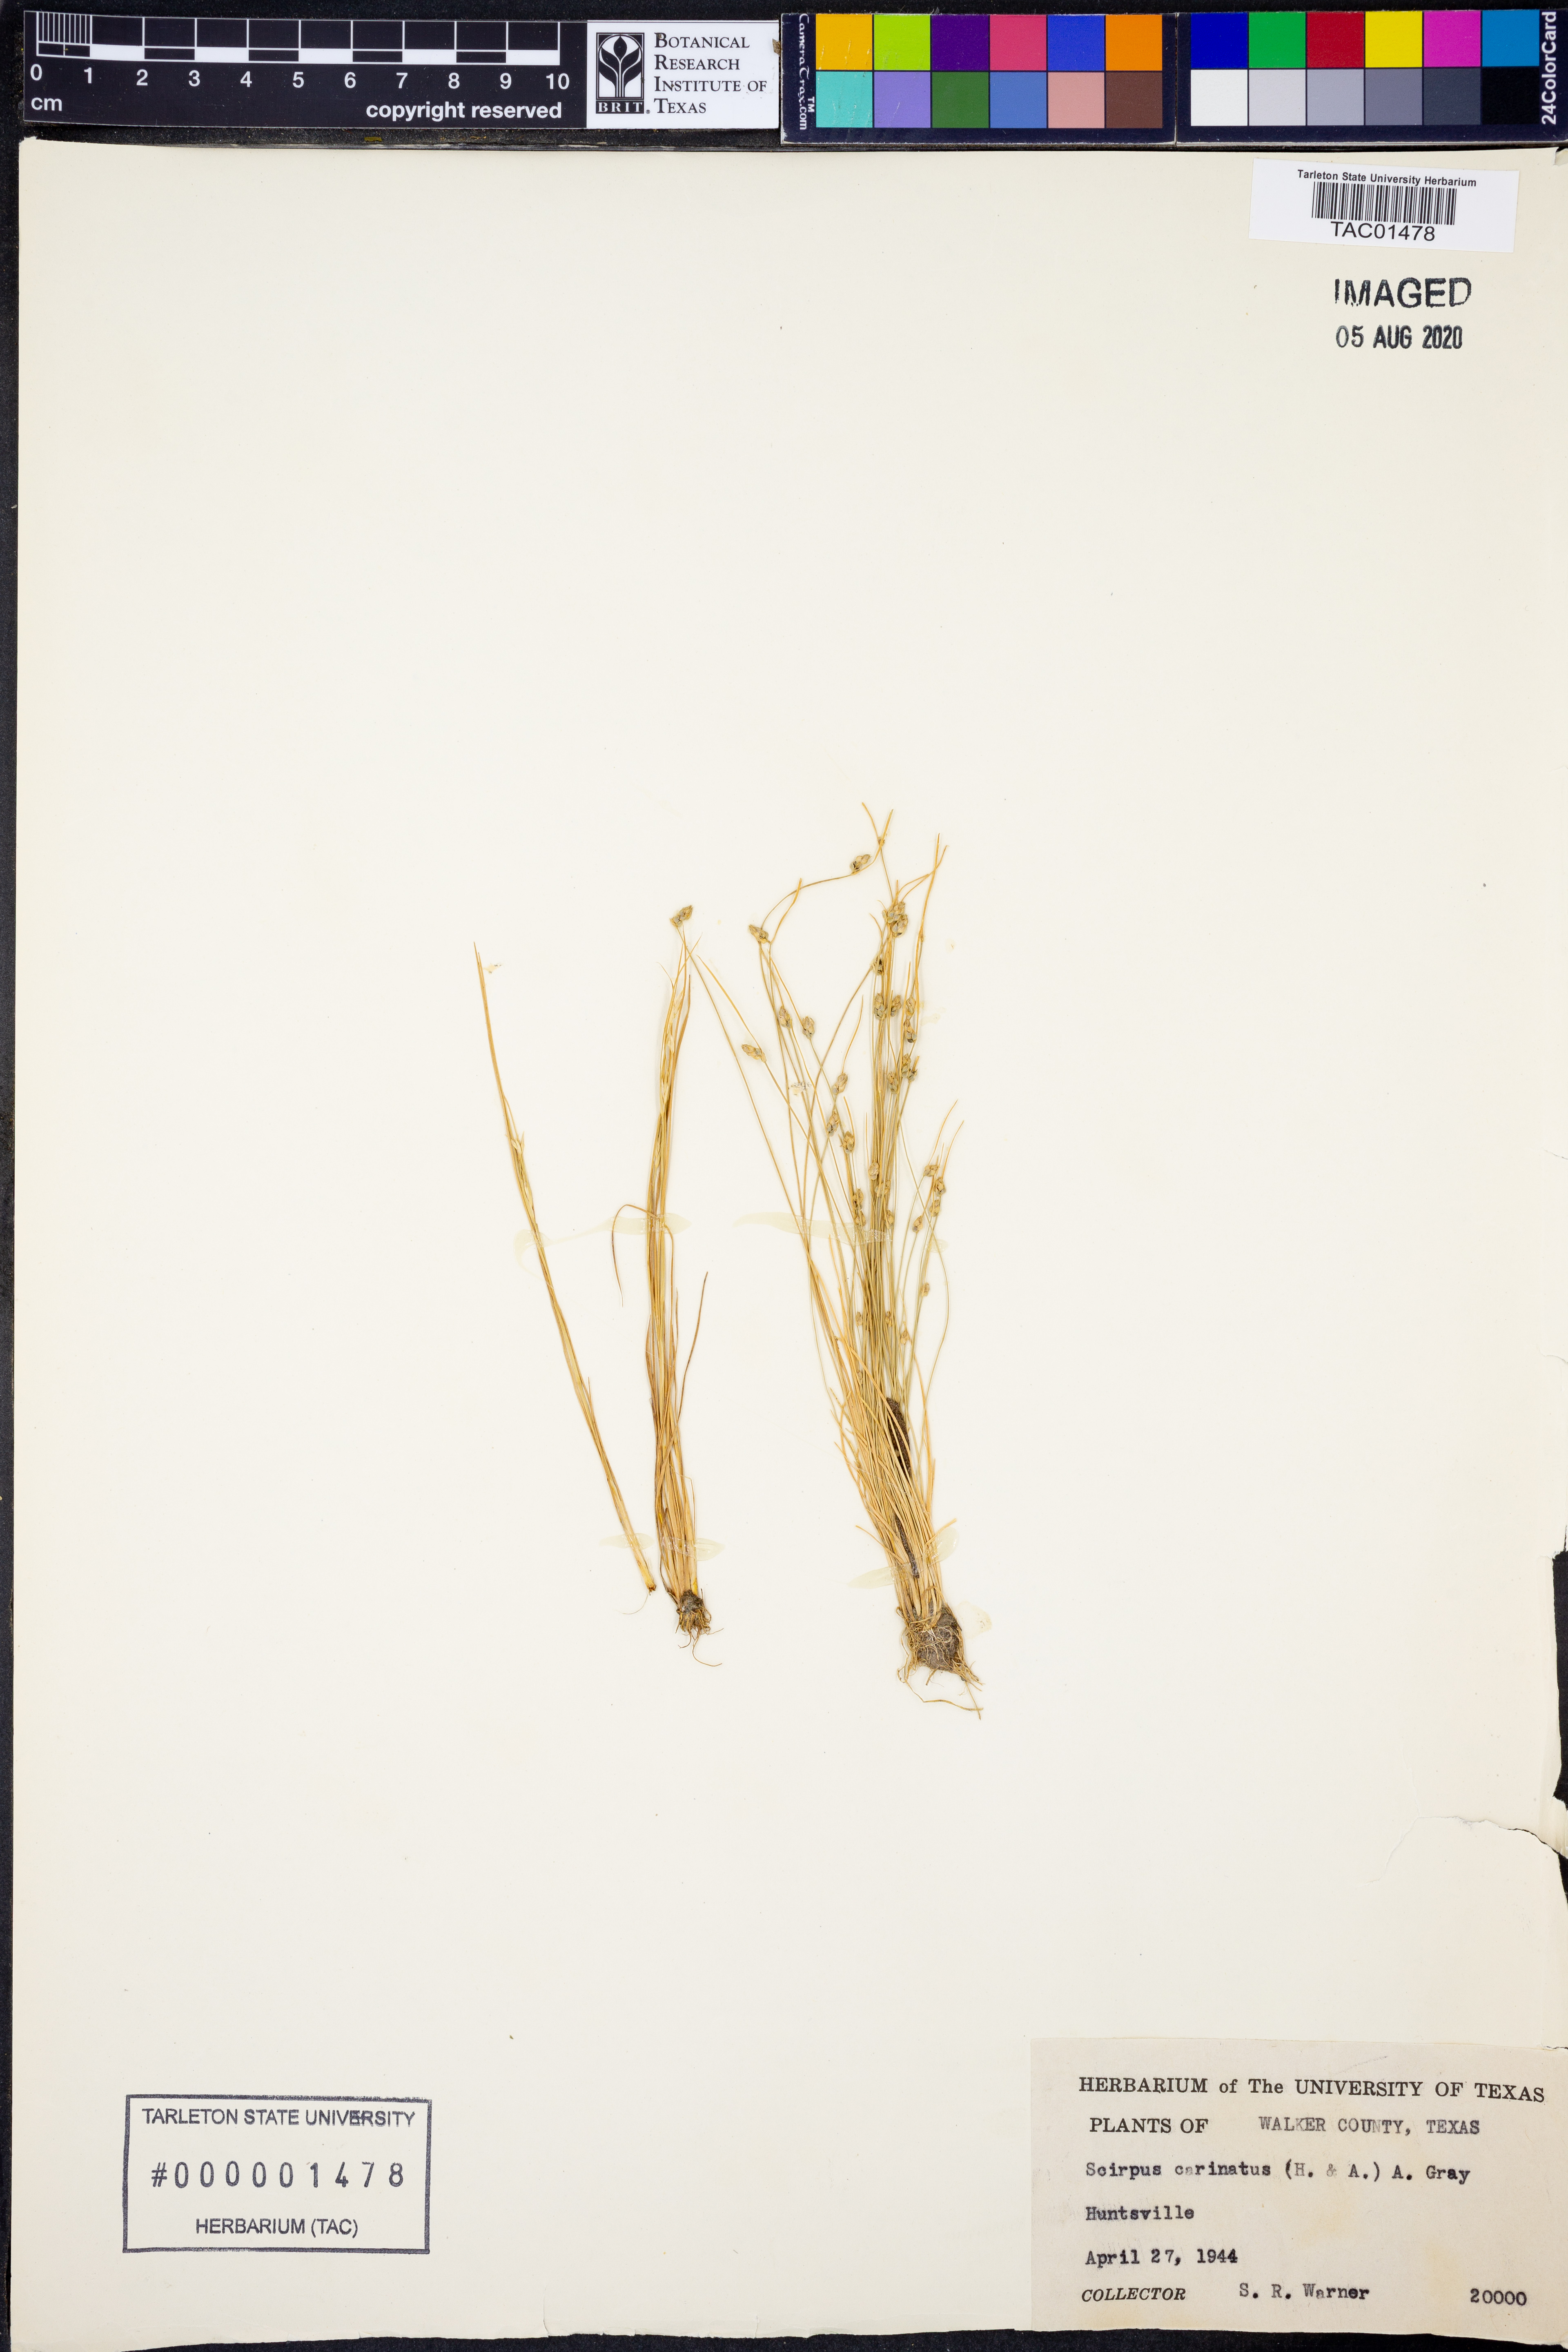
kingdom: Plantae
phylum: Tracheophyta
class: Liliopsida
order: Poales
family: Cyperaceae
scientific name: Cyperaceae
